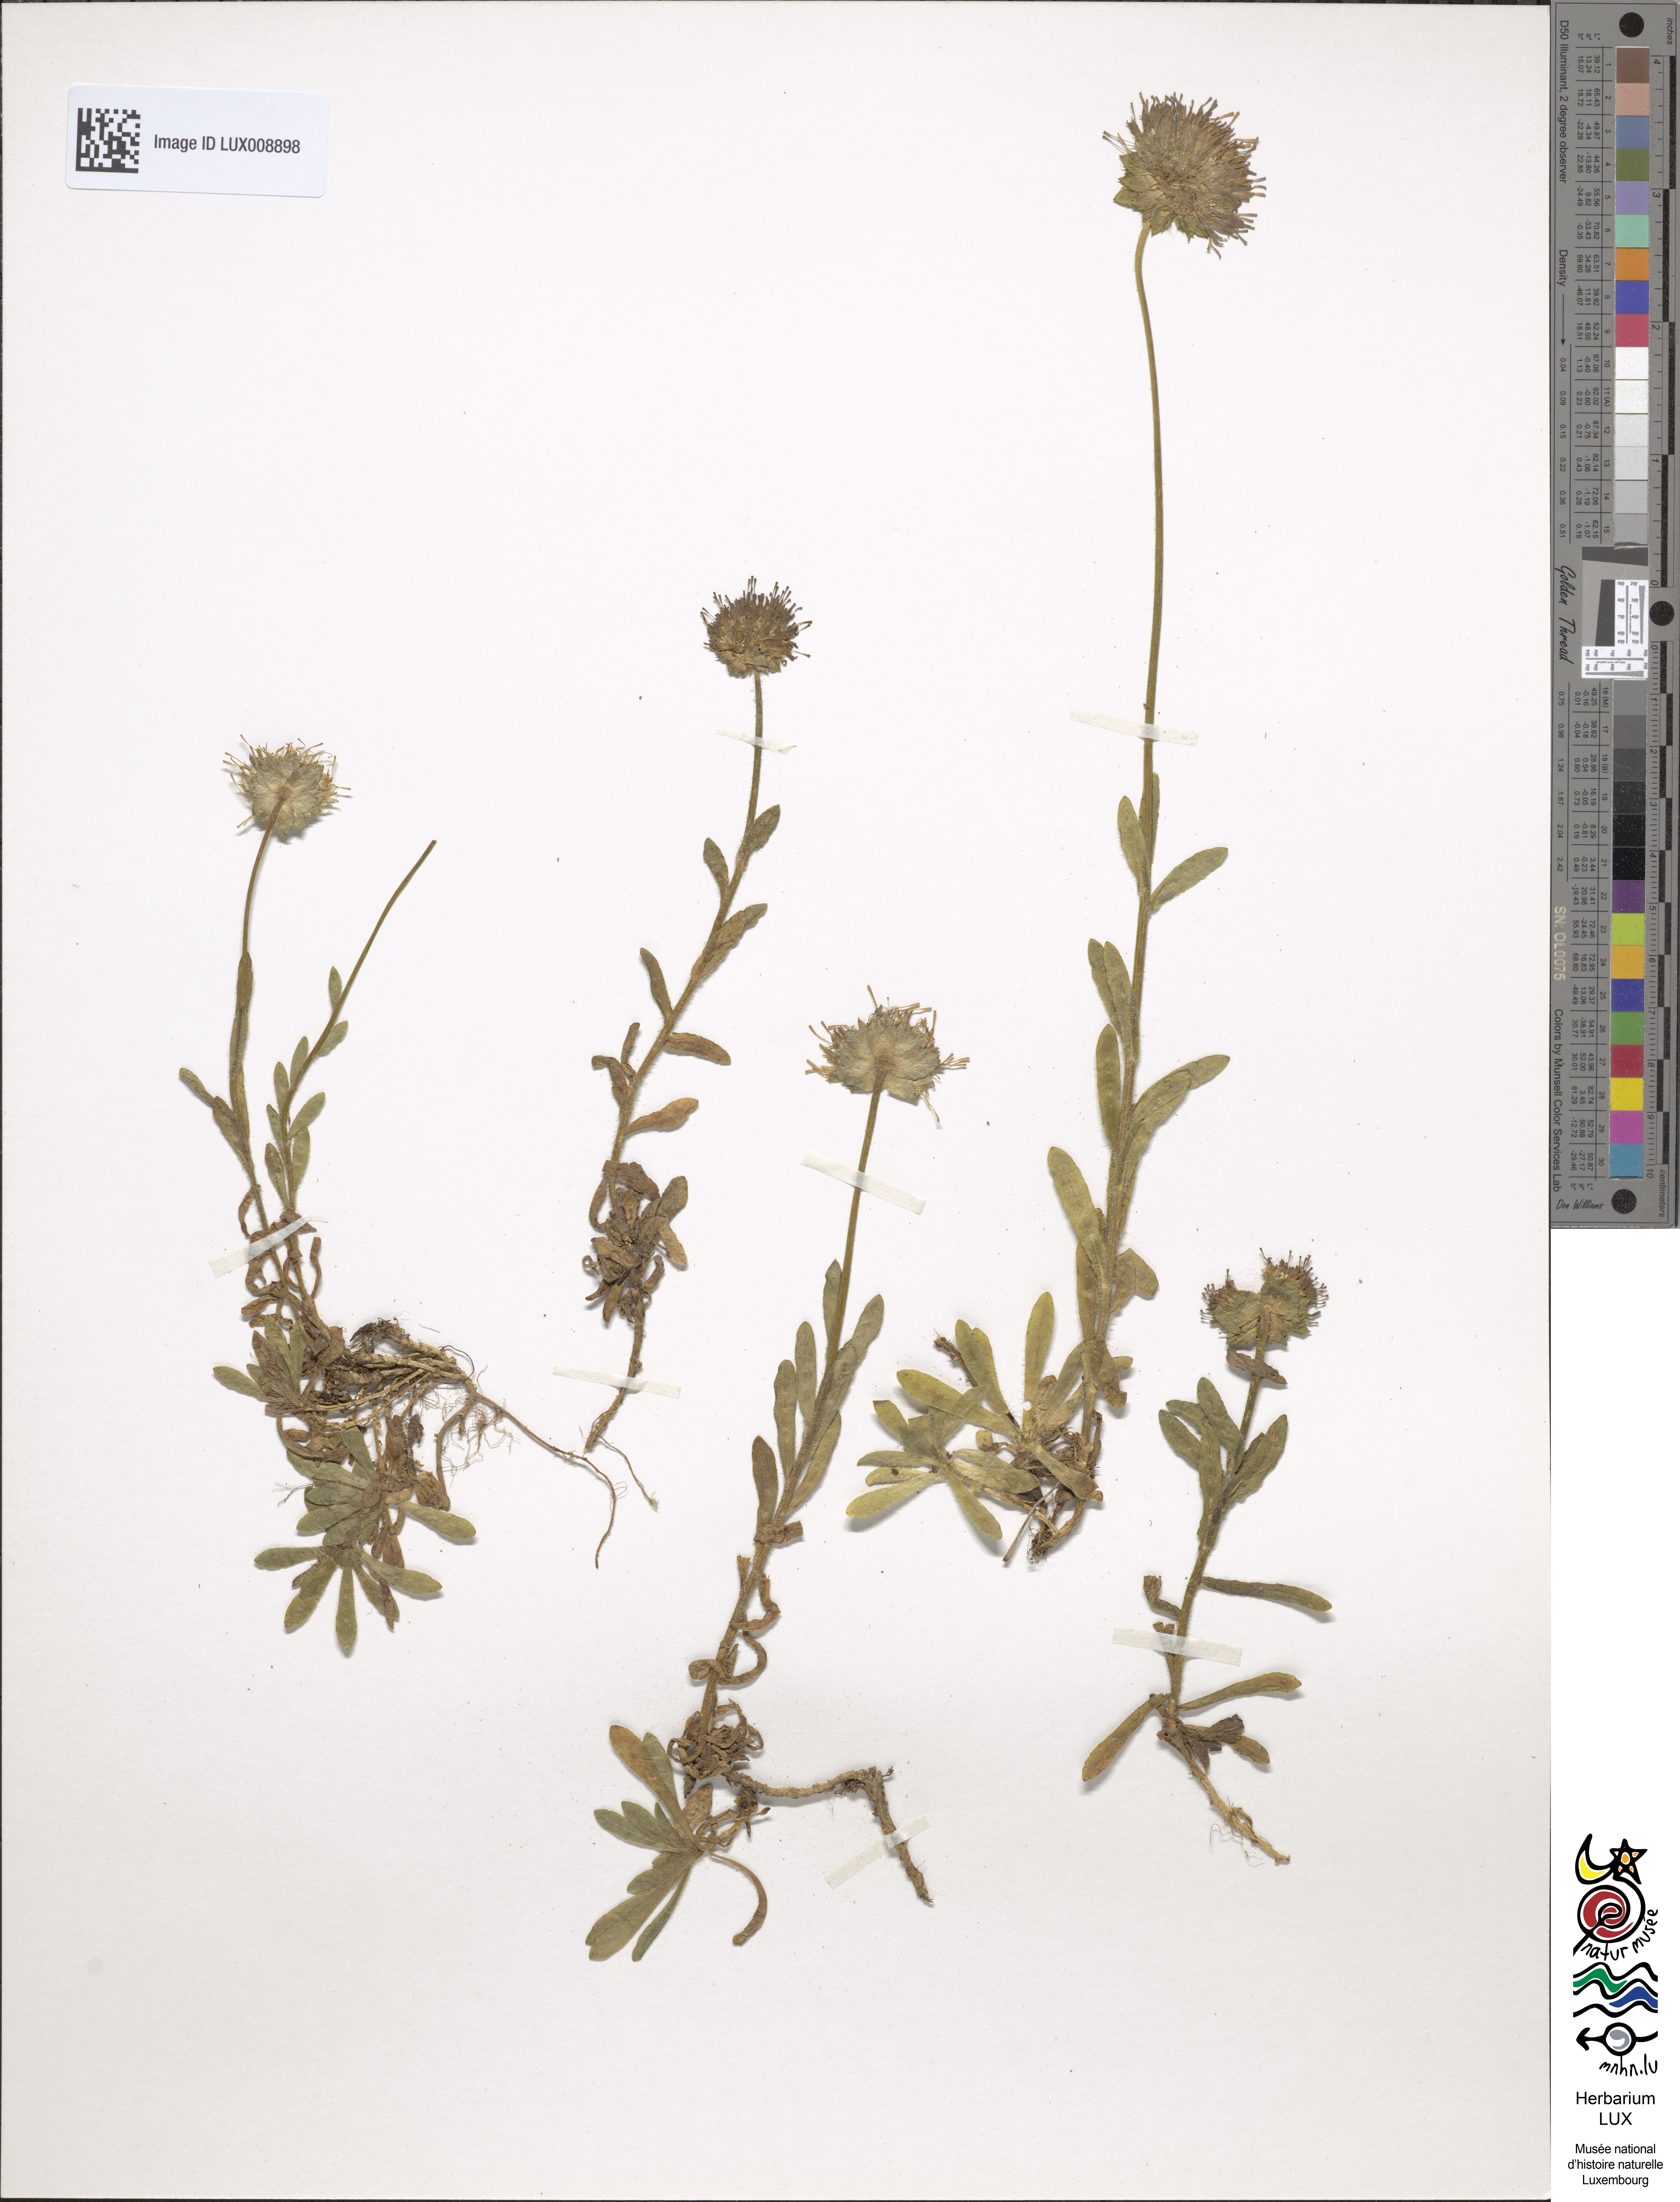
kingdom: Plantae
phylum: Tracheophyta
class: Magnoliopsida
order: Asterales
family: Campanulaceae
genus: Jasione
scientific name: Jasione laevis
